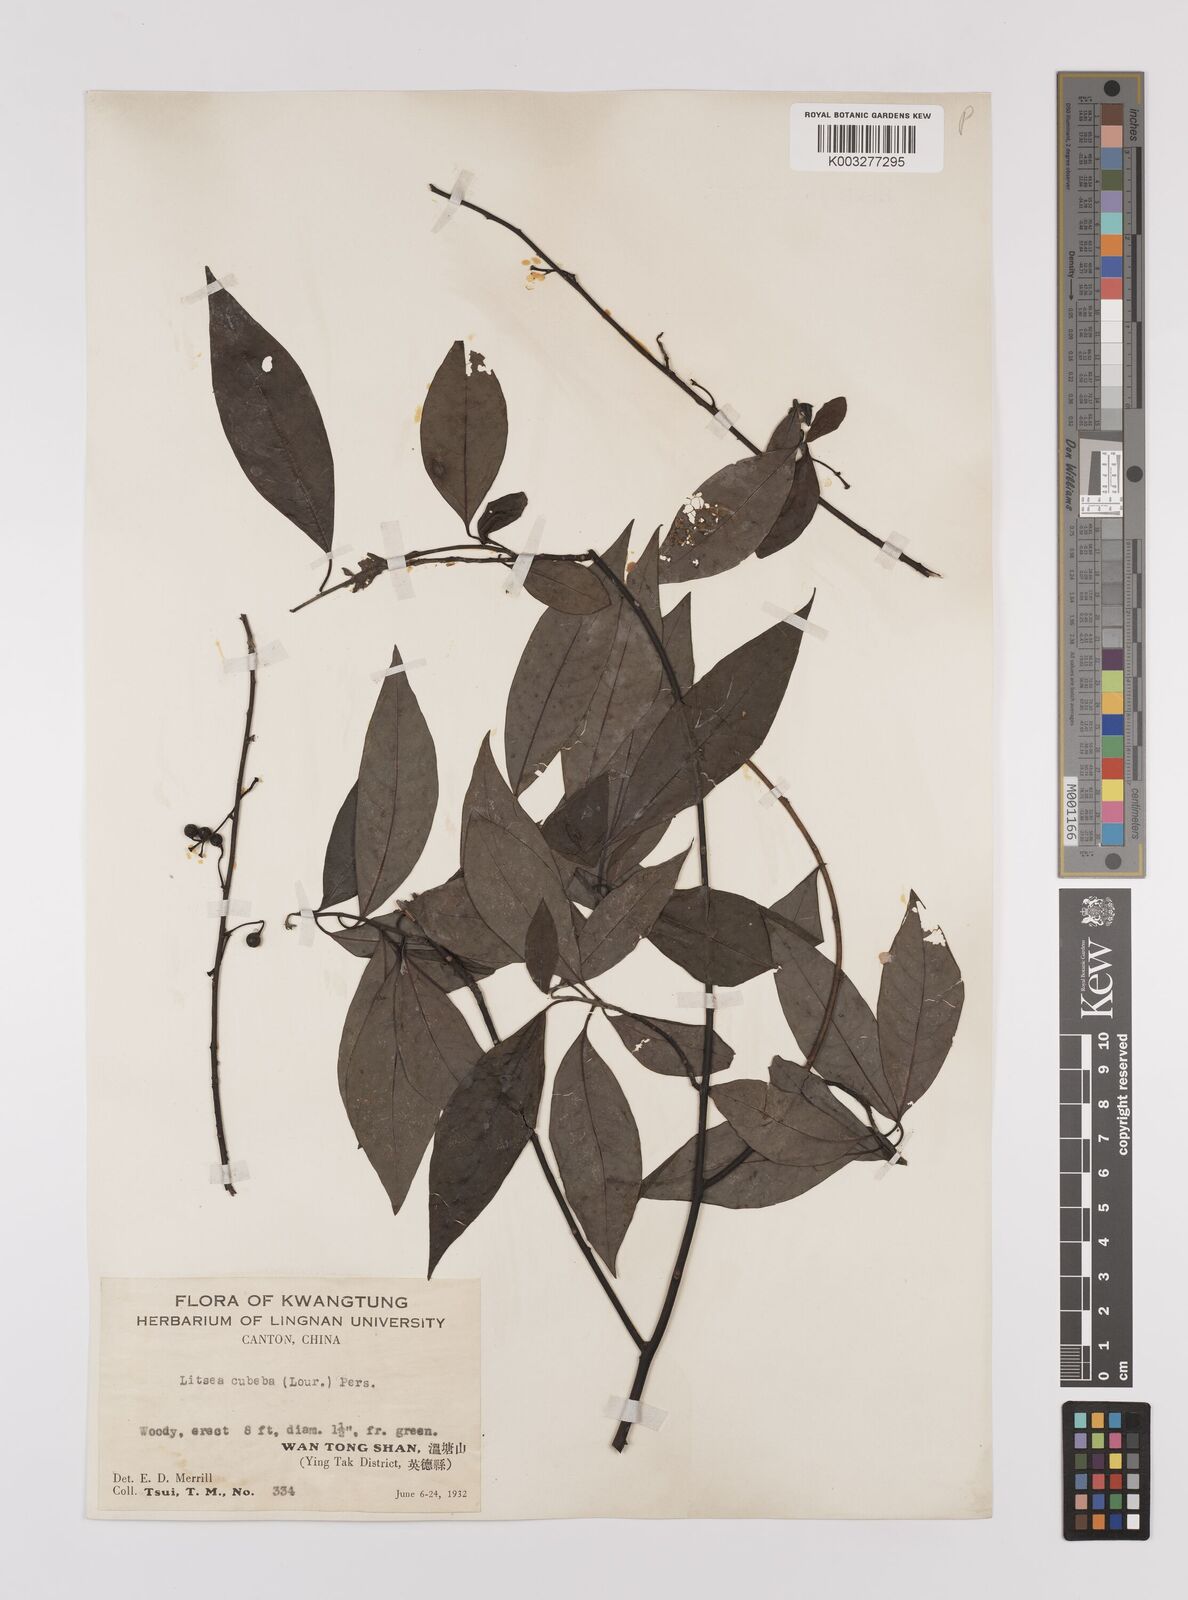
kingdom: Plantae
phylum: Tracheophyta
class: Magnoliopsida
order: Laurales
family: Lauraceae
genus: Litsea
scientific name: Litsea cubeba
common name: Mountain-pepper
